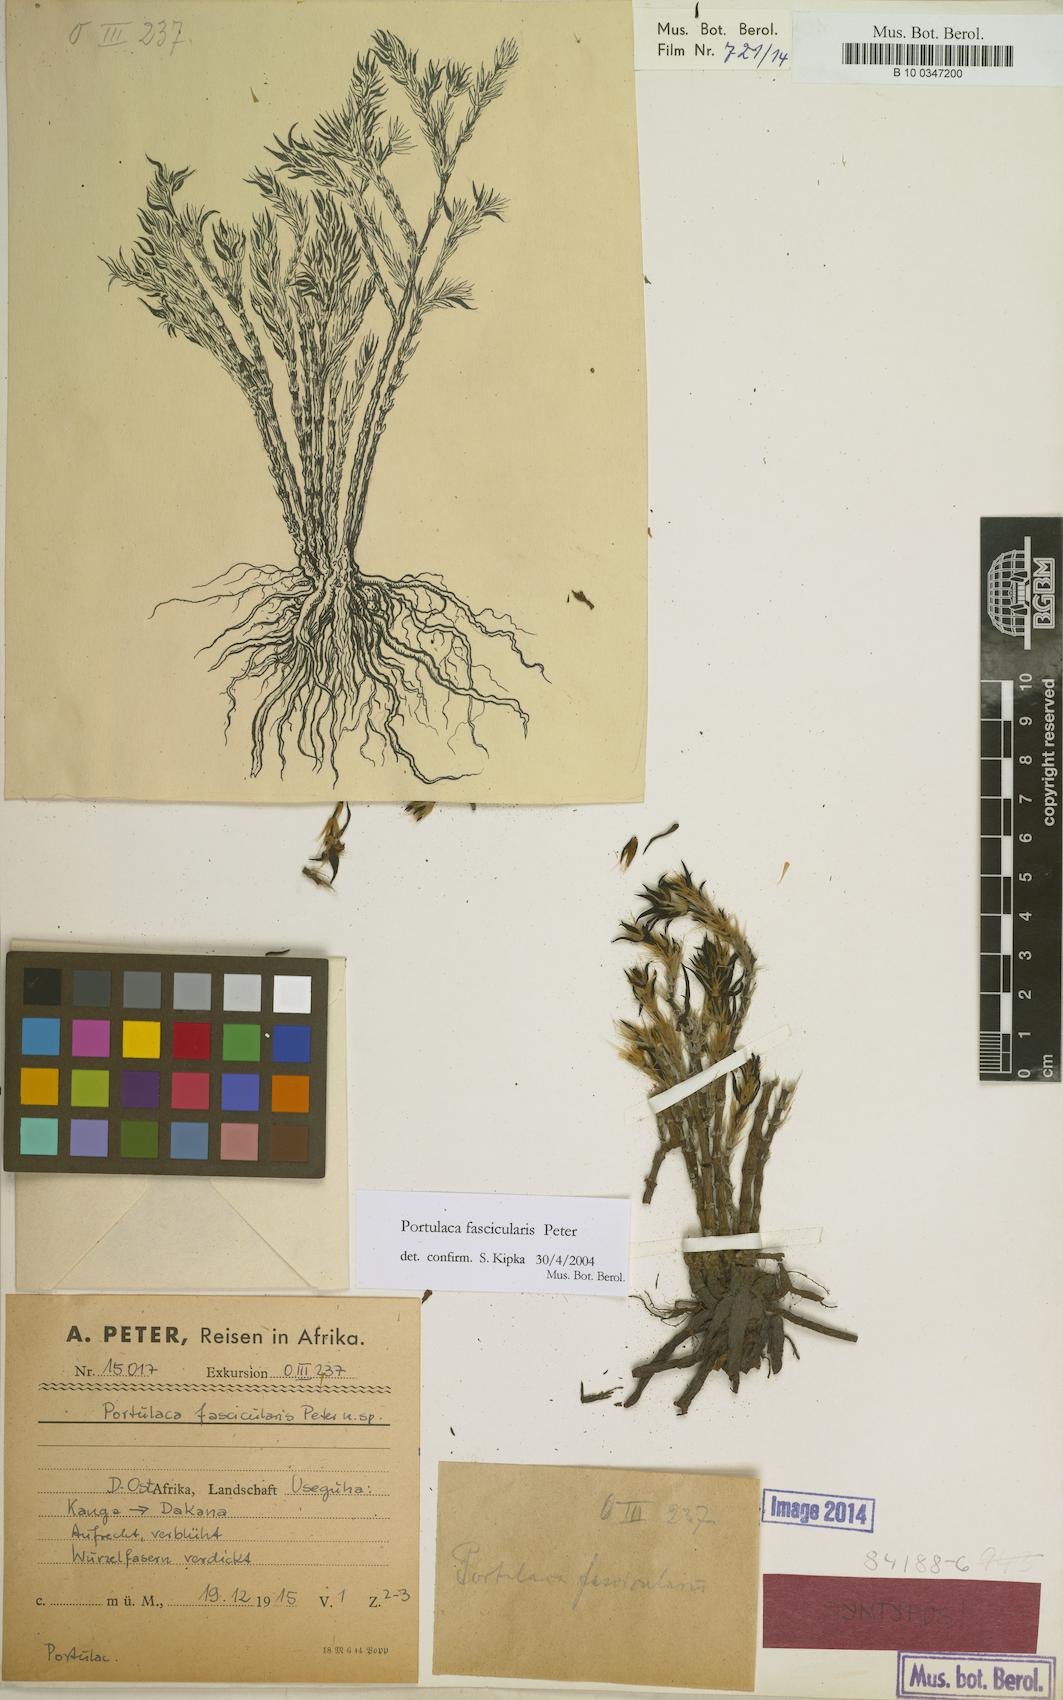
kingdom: Plantae
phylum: Tracheophyta
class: Magnoliopsida
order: Caryophyllales
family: Portulacaceae
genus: Portulaca
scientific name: Portulaca fascicularis
